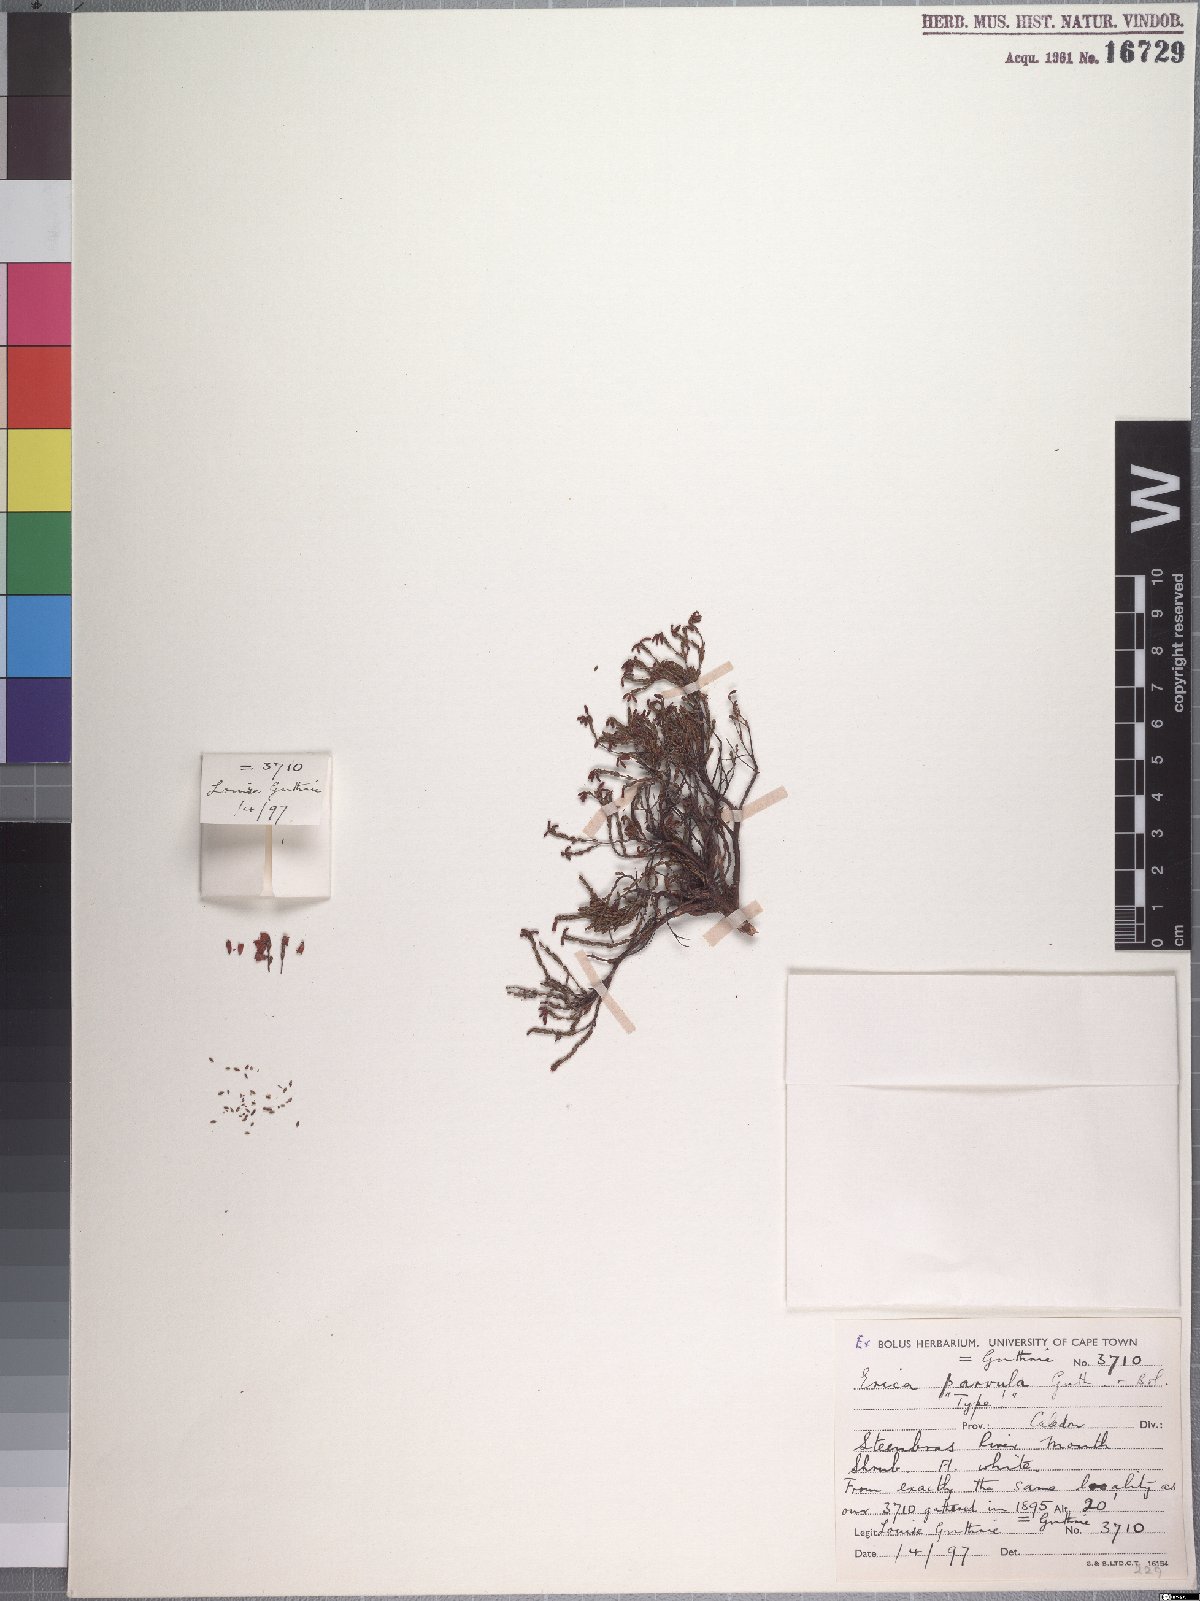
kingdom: Plantae
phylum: Tracheophyta
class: Magnoliopsida
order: Ericales
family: Ericaceae
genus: Erica
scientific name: Erica equisetifolia
